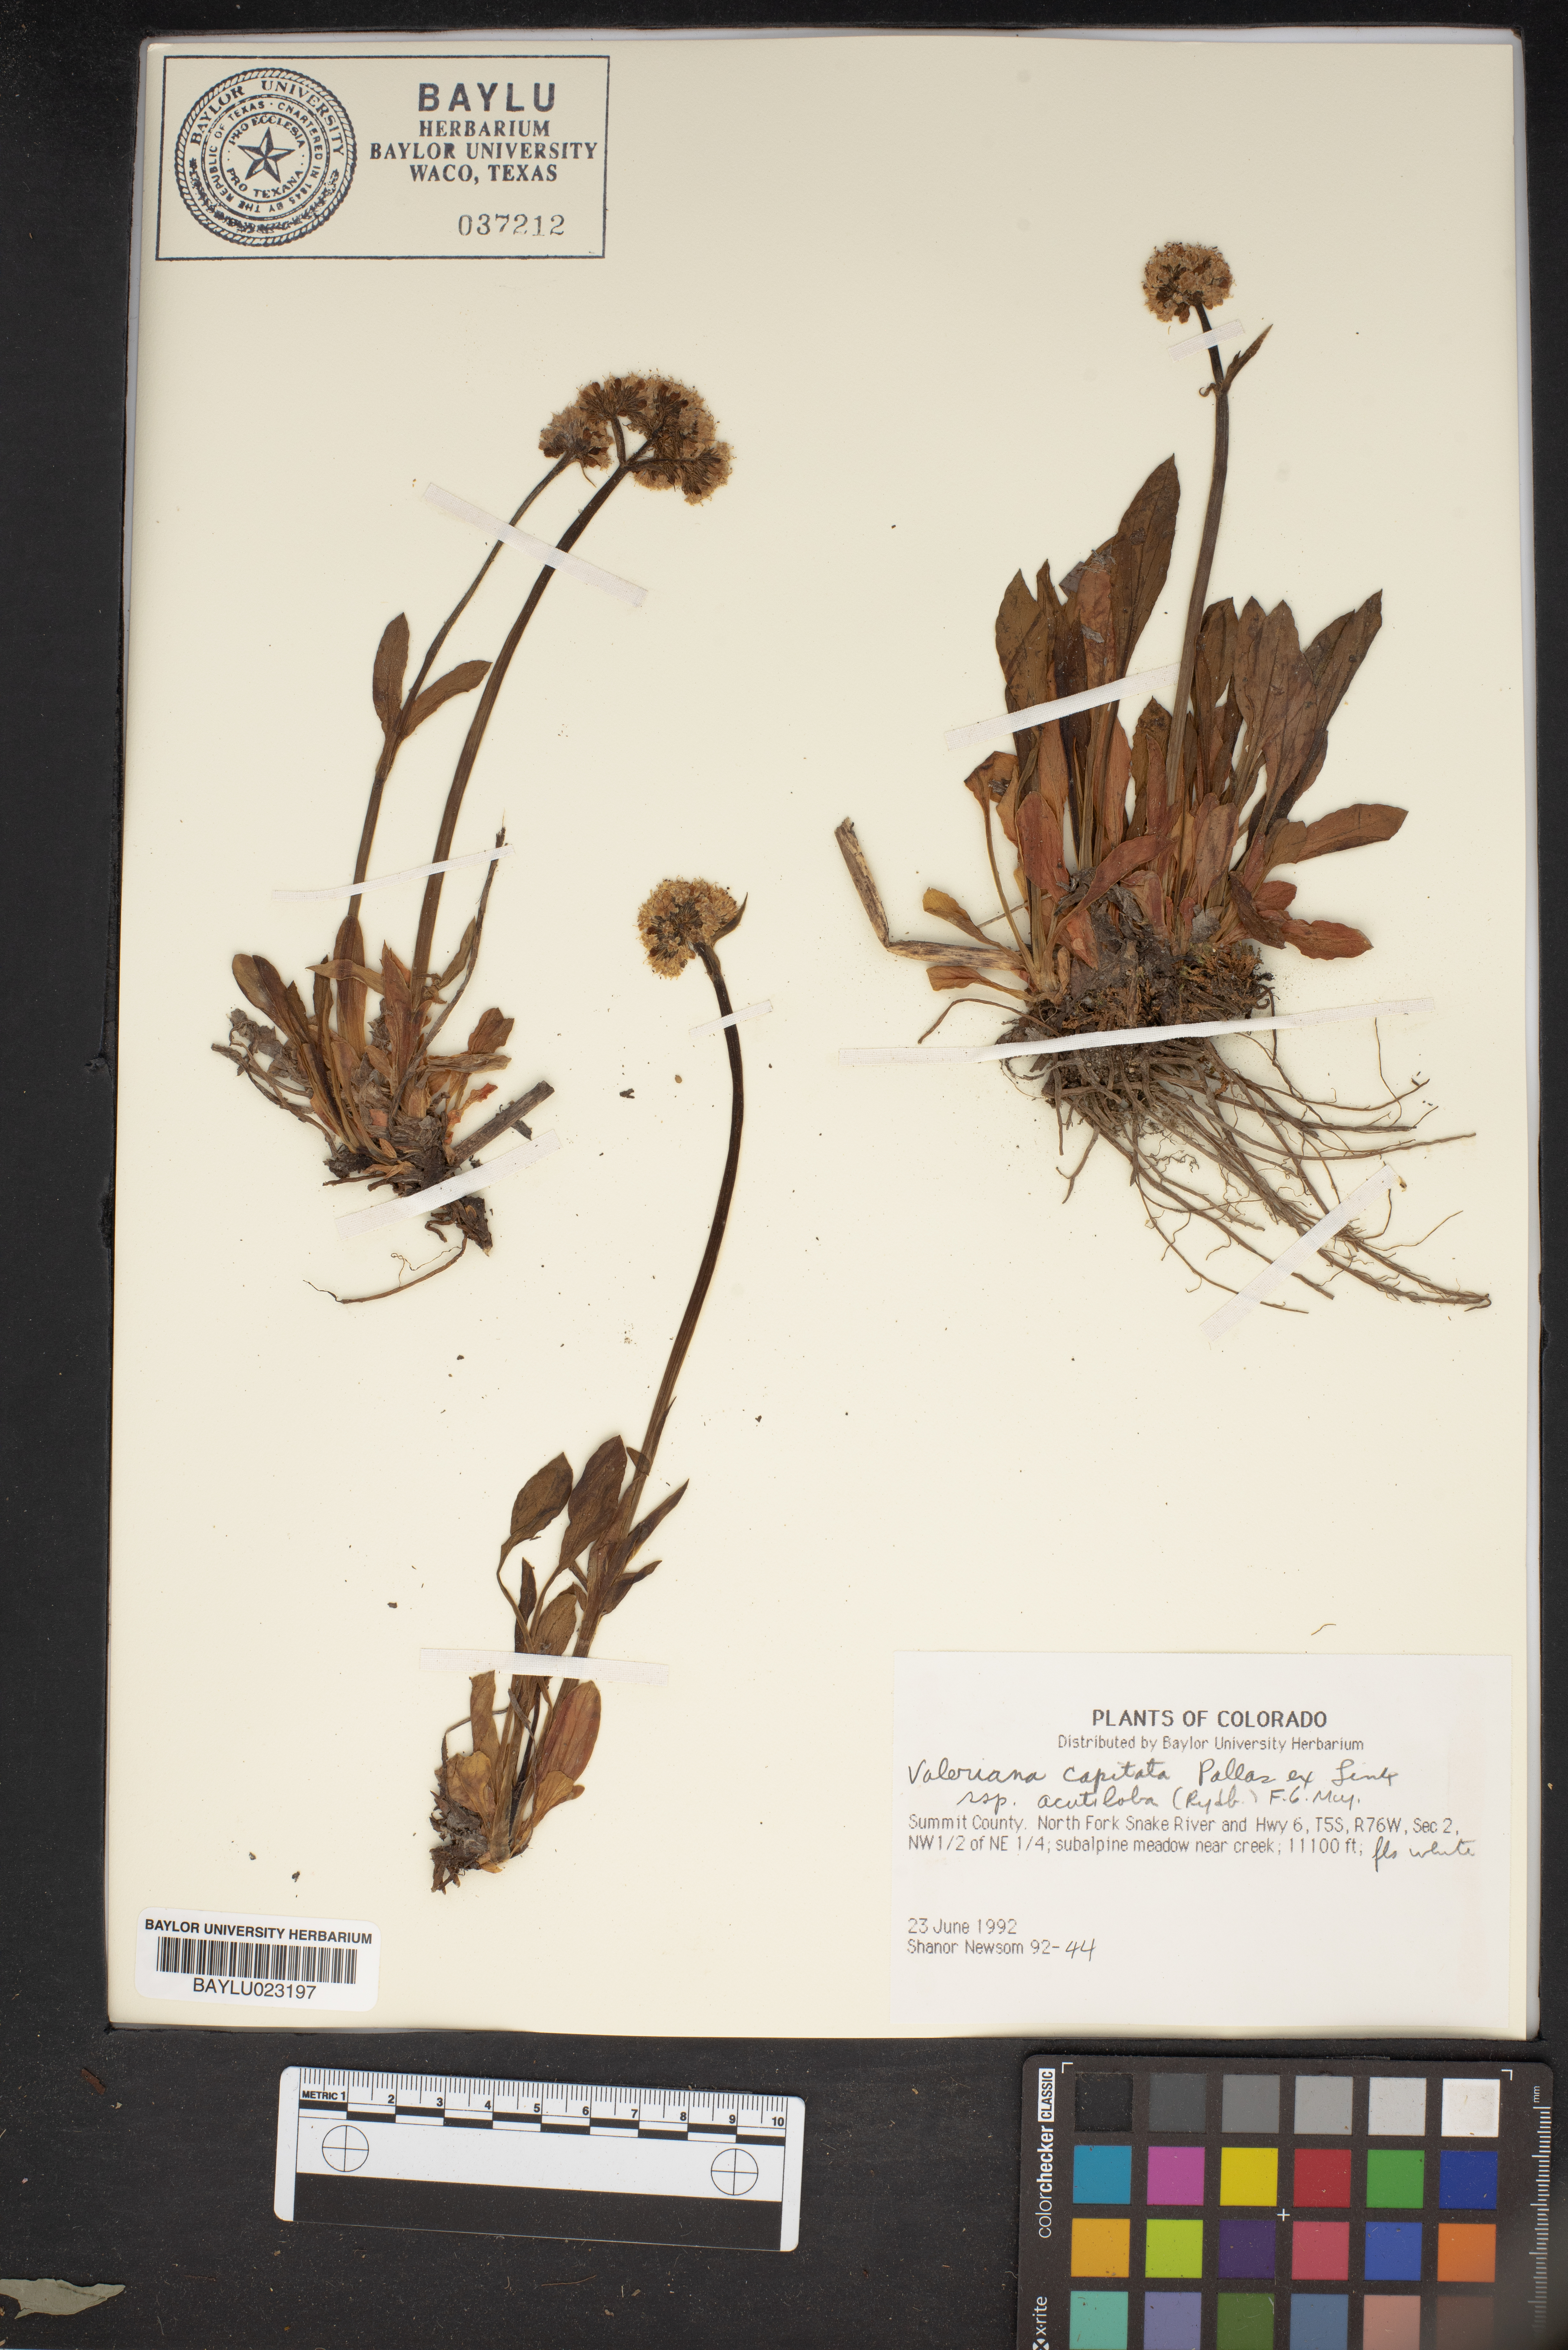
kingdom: Plantae
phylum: Tracheophyta
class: Magnoliopsida
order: Dipsacales
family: Caprifoliaceae
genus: Valeriana
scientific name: Valeriana acutiloba
